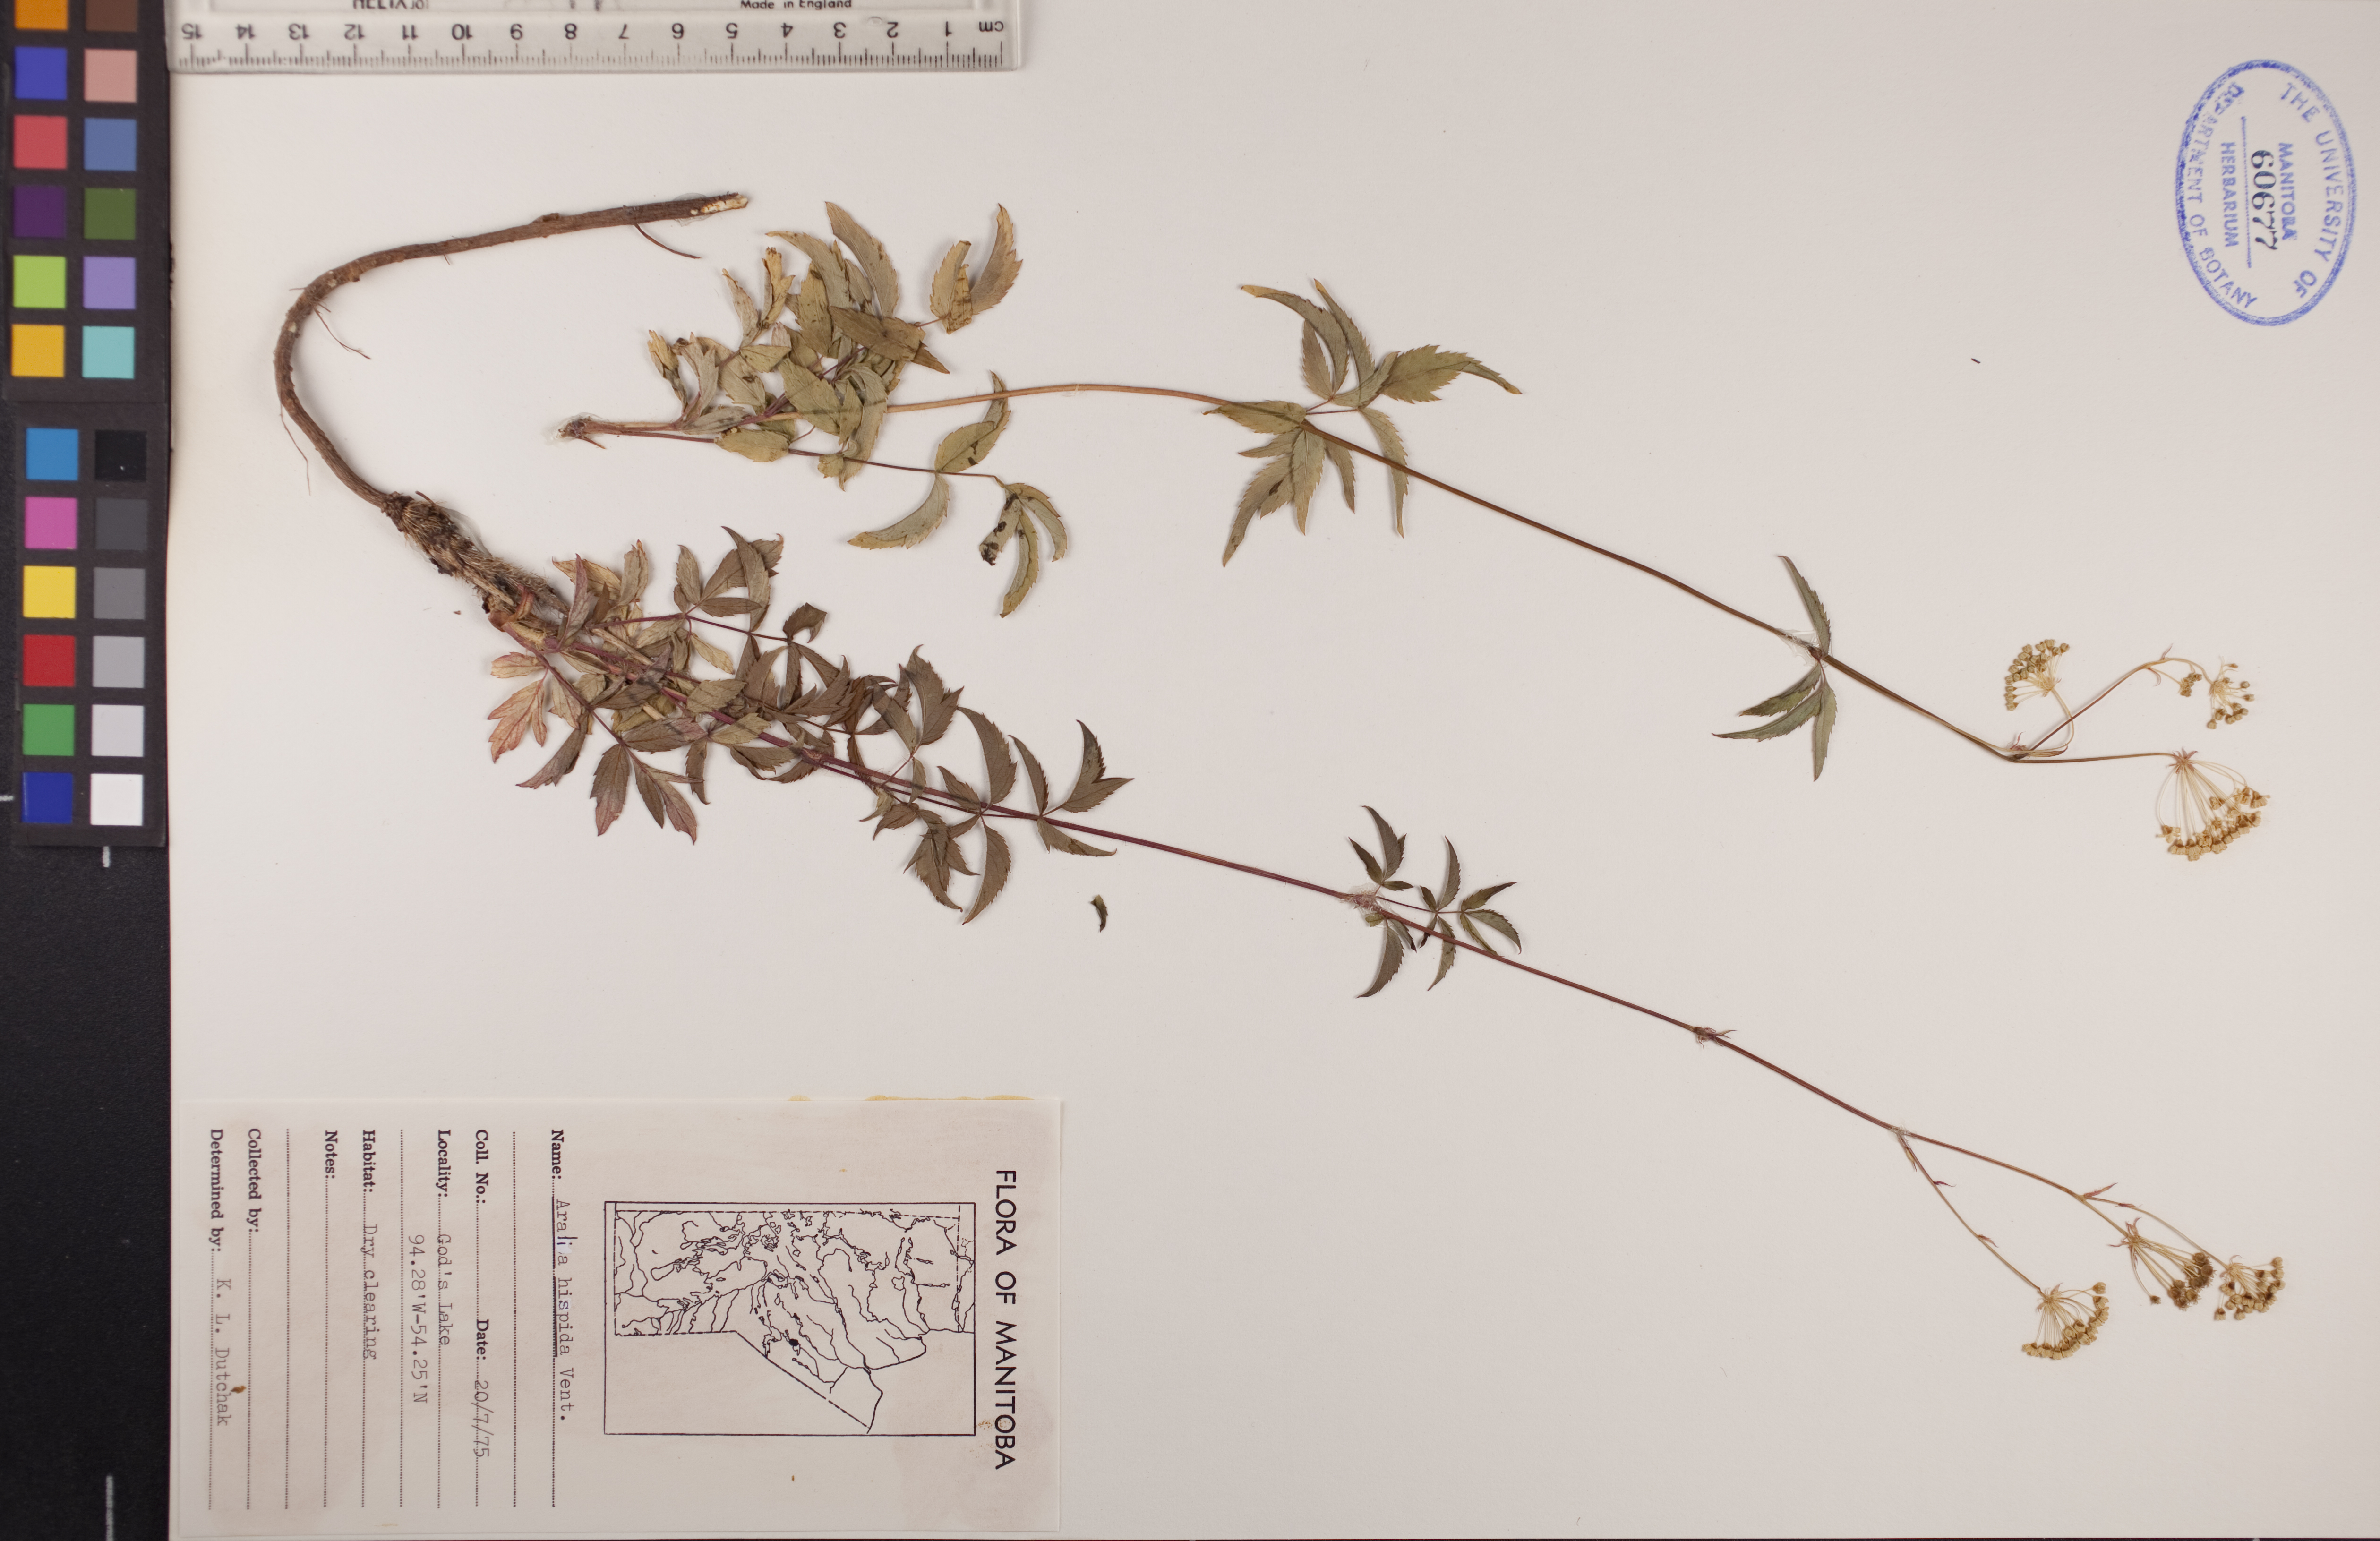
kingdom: Plantae
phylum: Tracheophyta
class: Magnoliopsida
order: Apiales
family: Araliaceae
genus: Aralia
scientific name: Aralia hispida
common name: Bristly sarsaparilla
